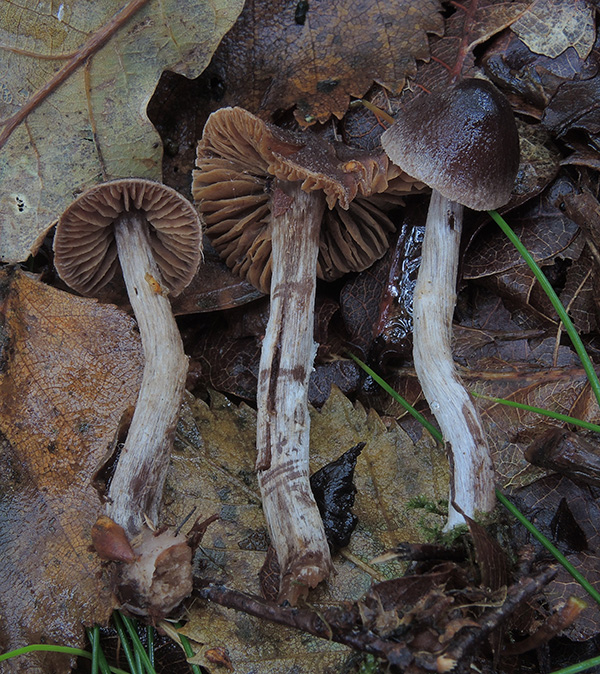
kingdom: Fungi
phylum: Basidiomycota
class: Agaricomycetes
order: Agaricales
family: Cortinariaceae
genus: Cortinarius
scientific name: Cortinarius hirtus
